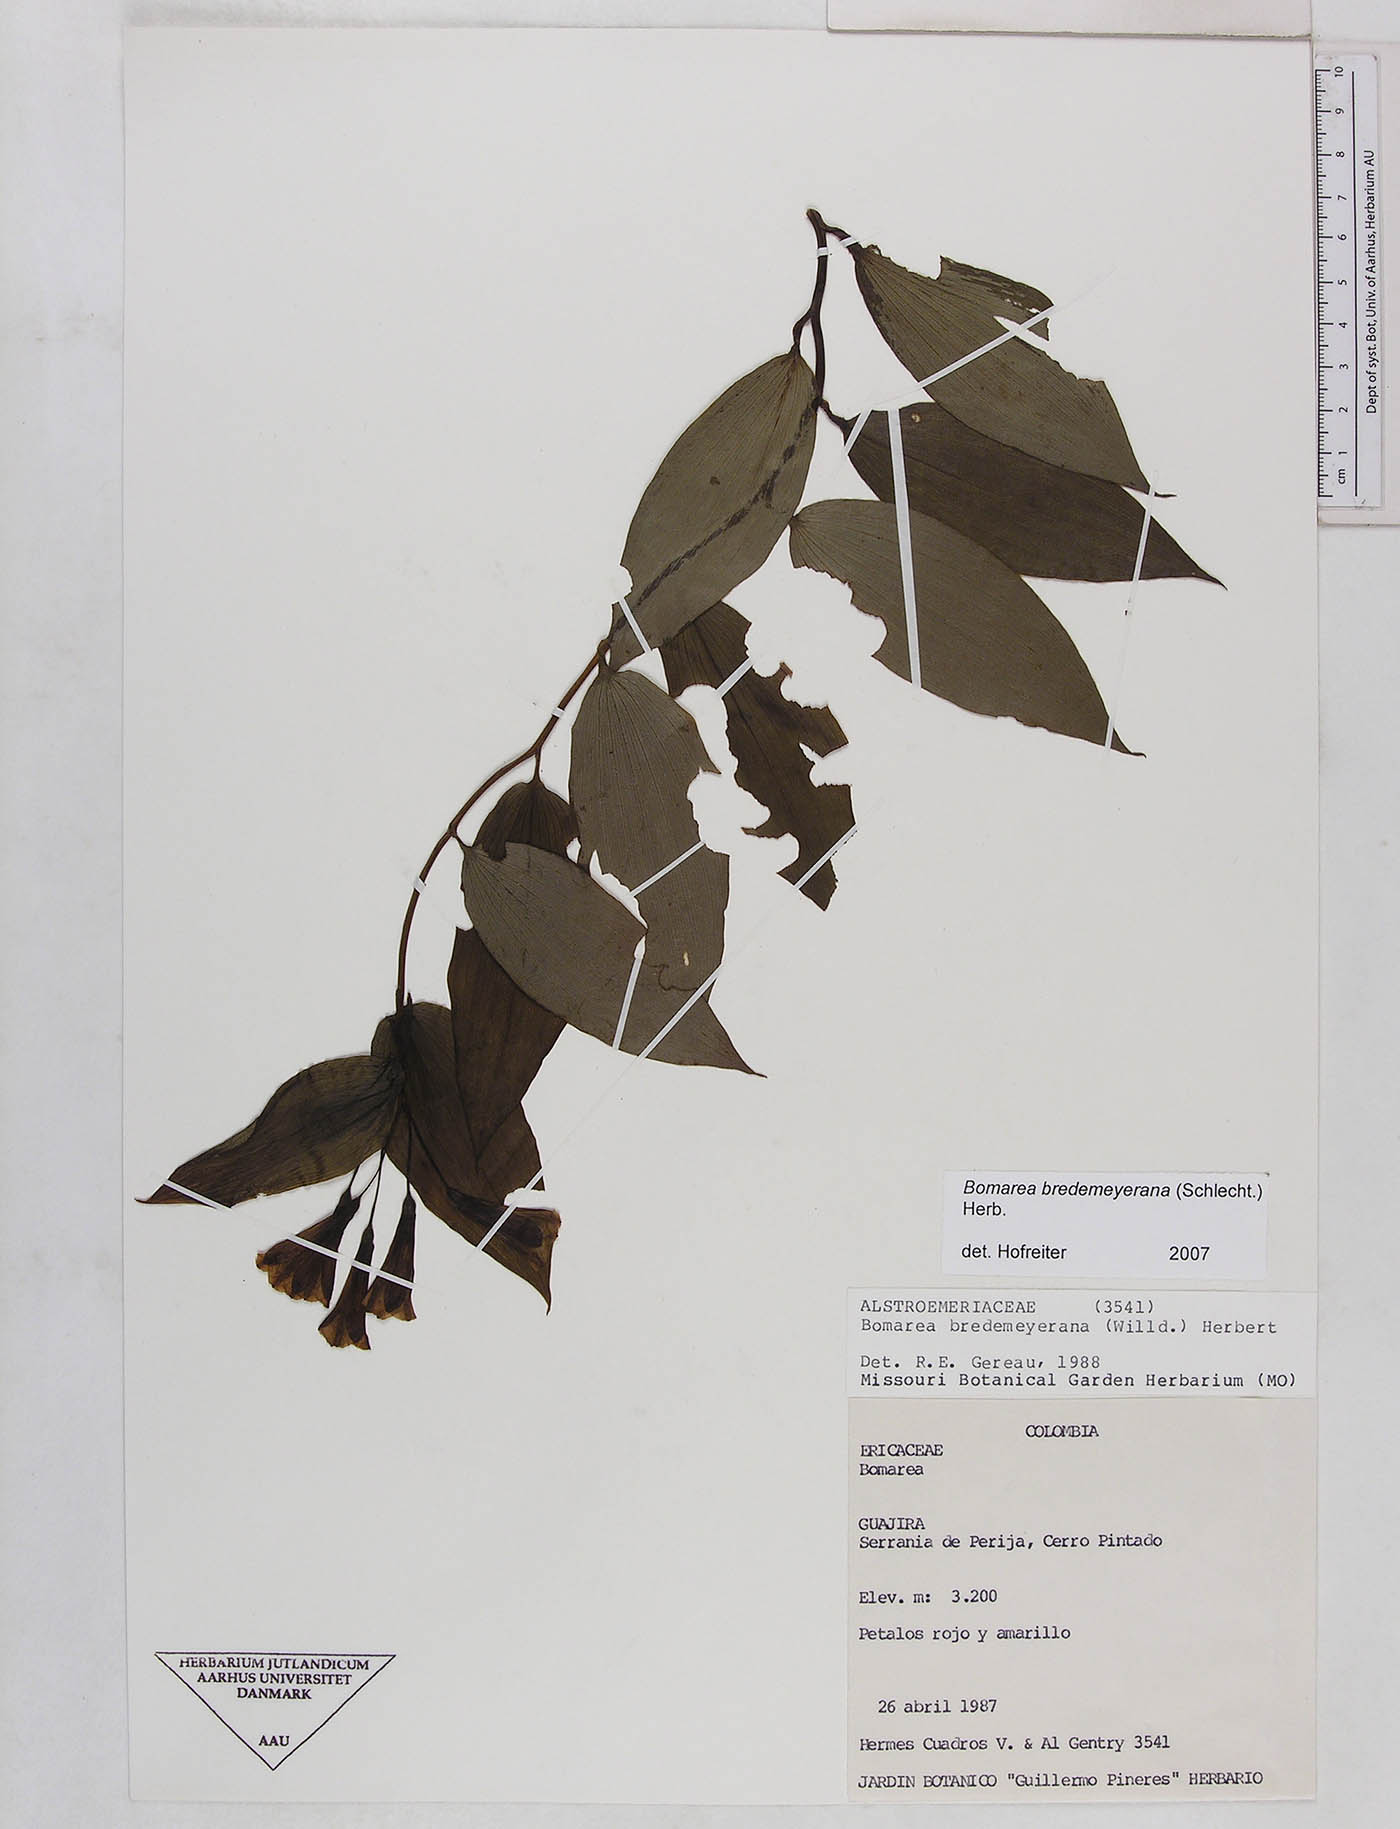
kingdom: Plantae
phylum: Tracheophyta
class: Liliopsida
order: Liliales
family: Alstroemeriaceae
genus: Bomarea
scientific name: Bomarea bredemeyerana
